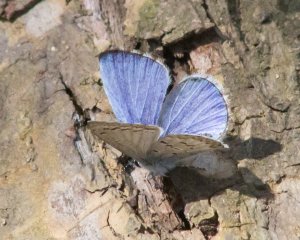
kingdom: Animalia
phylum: Arthropoda
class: Insecta
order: Lepidoptera
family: Lycaenidae
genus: Cyaniris
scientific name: Cyaniris neglecta
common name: Summer Azure
